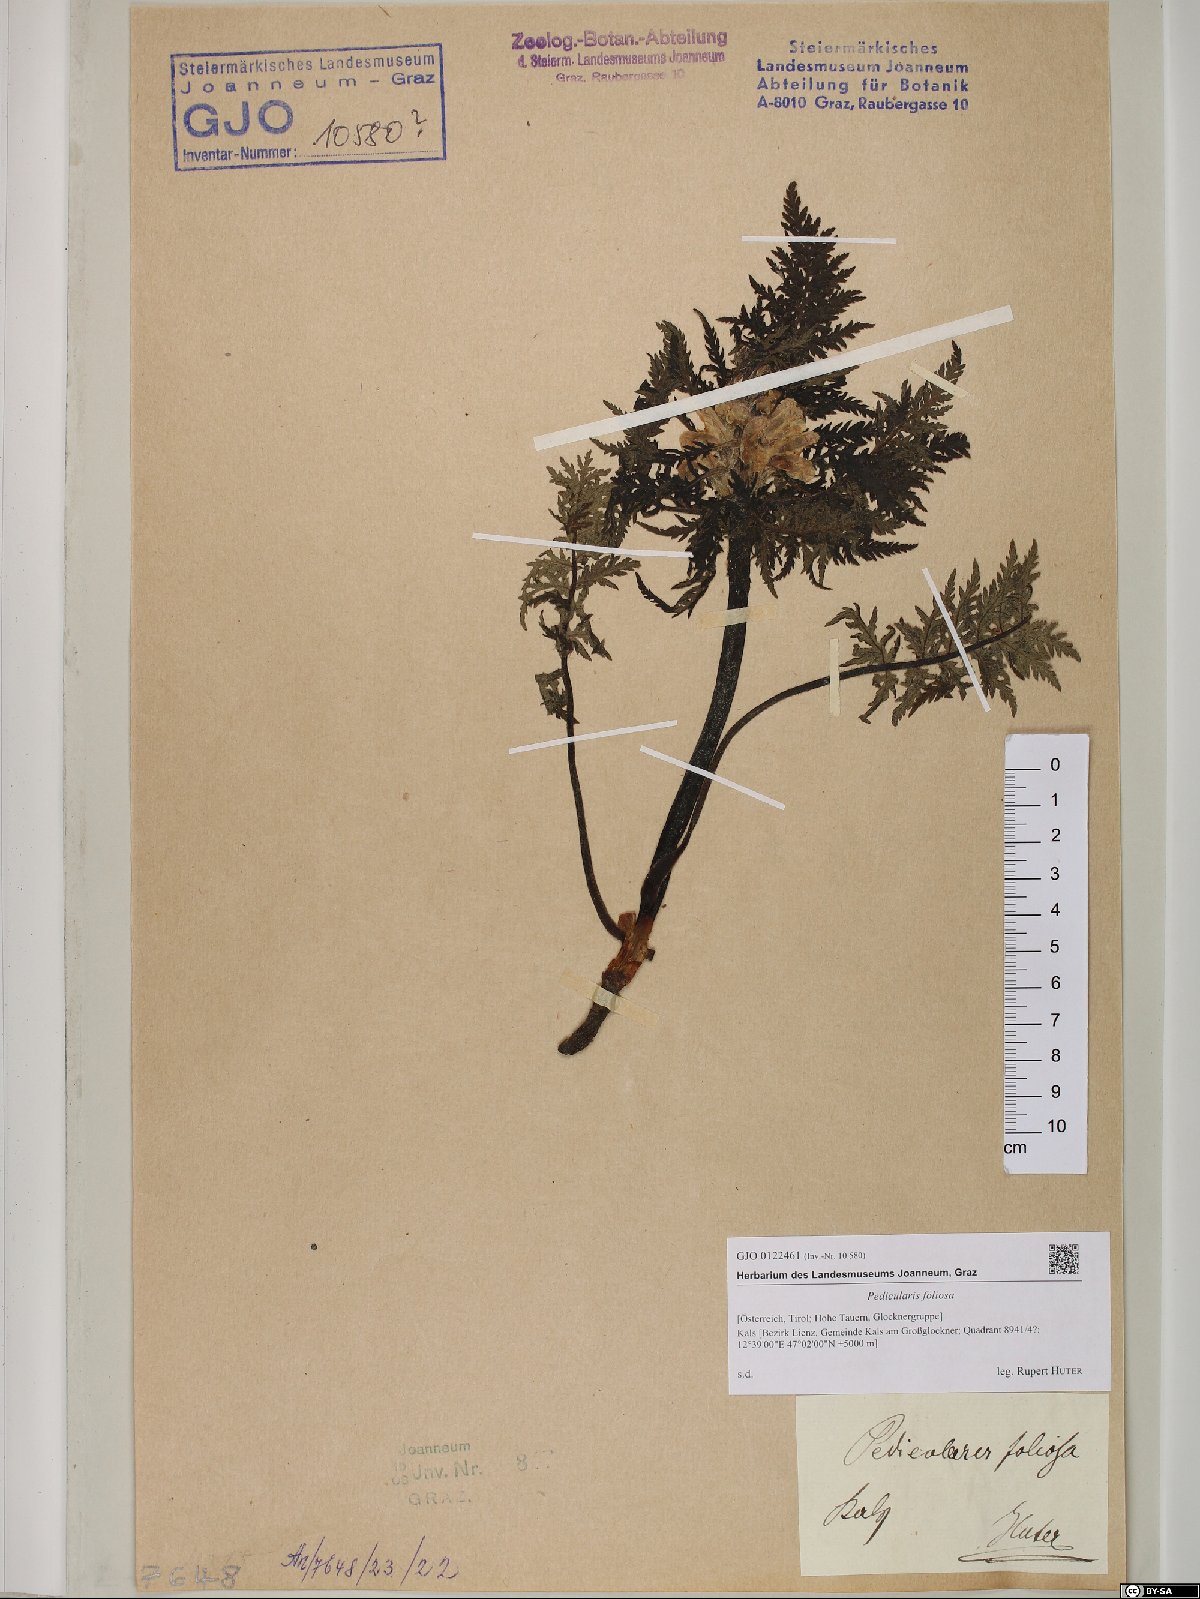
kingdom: Plantae
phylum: Tracheophyta
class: Magnoliopsida
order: Lamiales
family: Orobanchaceae
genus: Pedicularis
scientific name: Pedicularis foliosa
